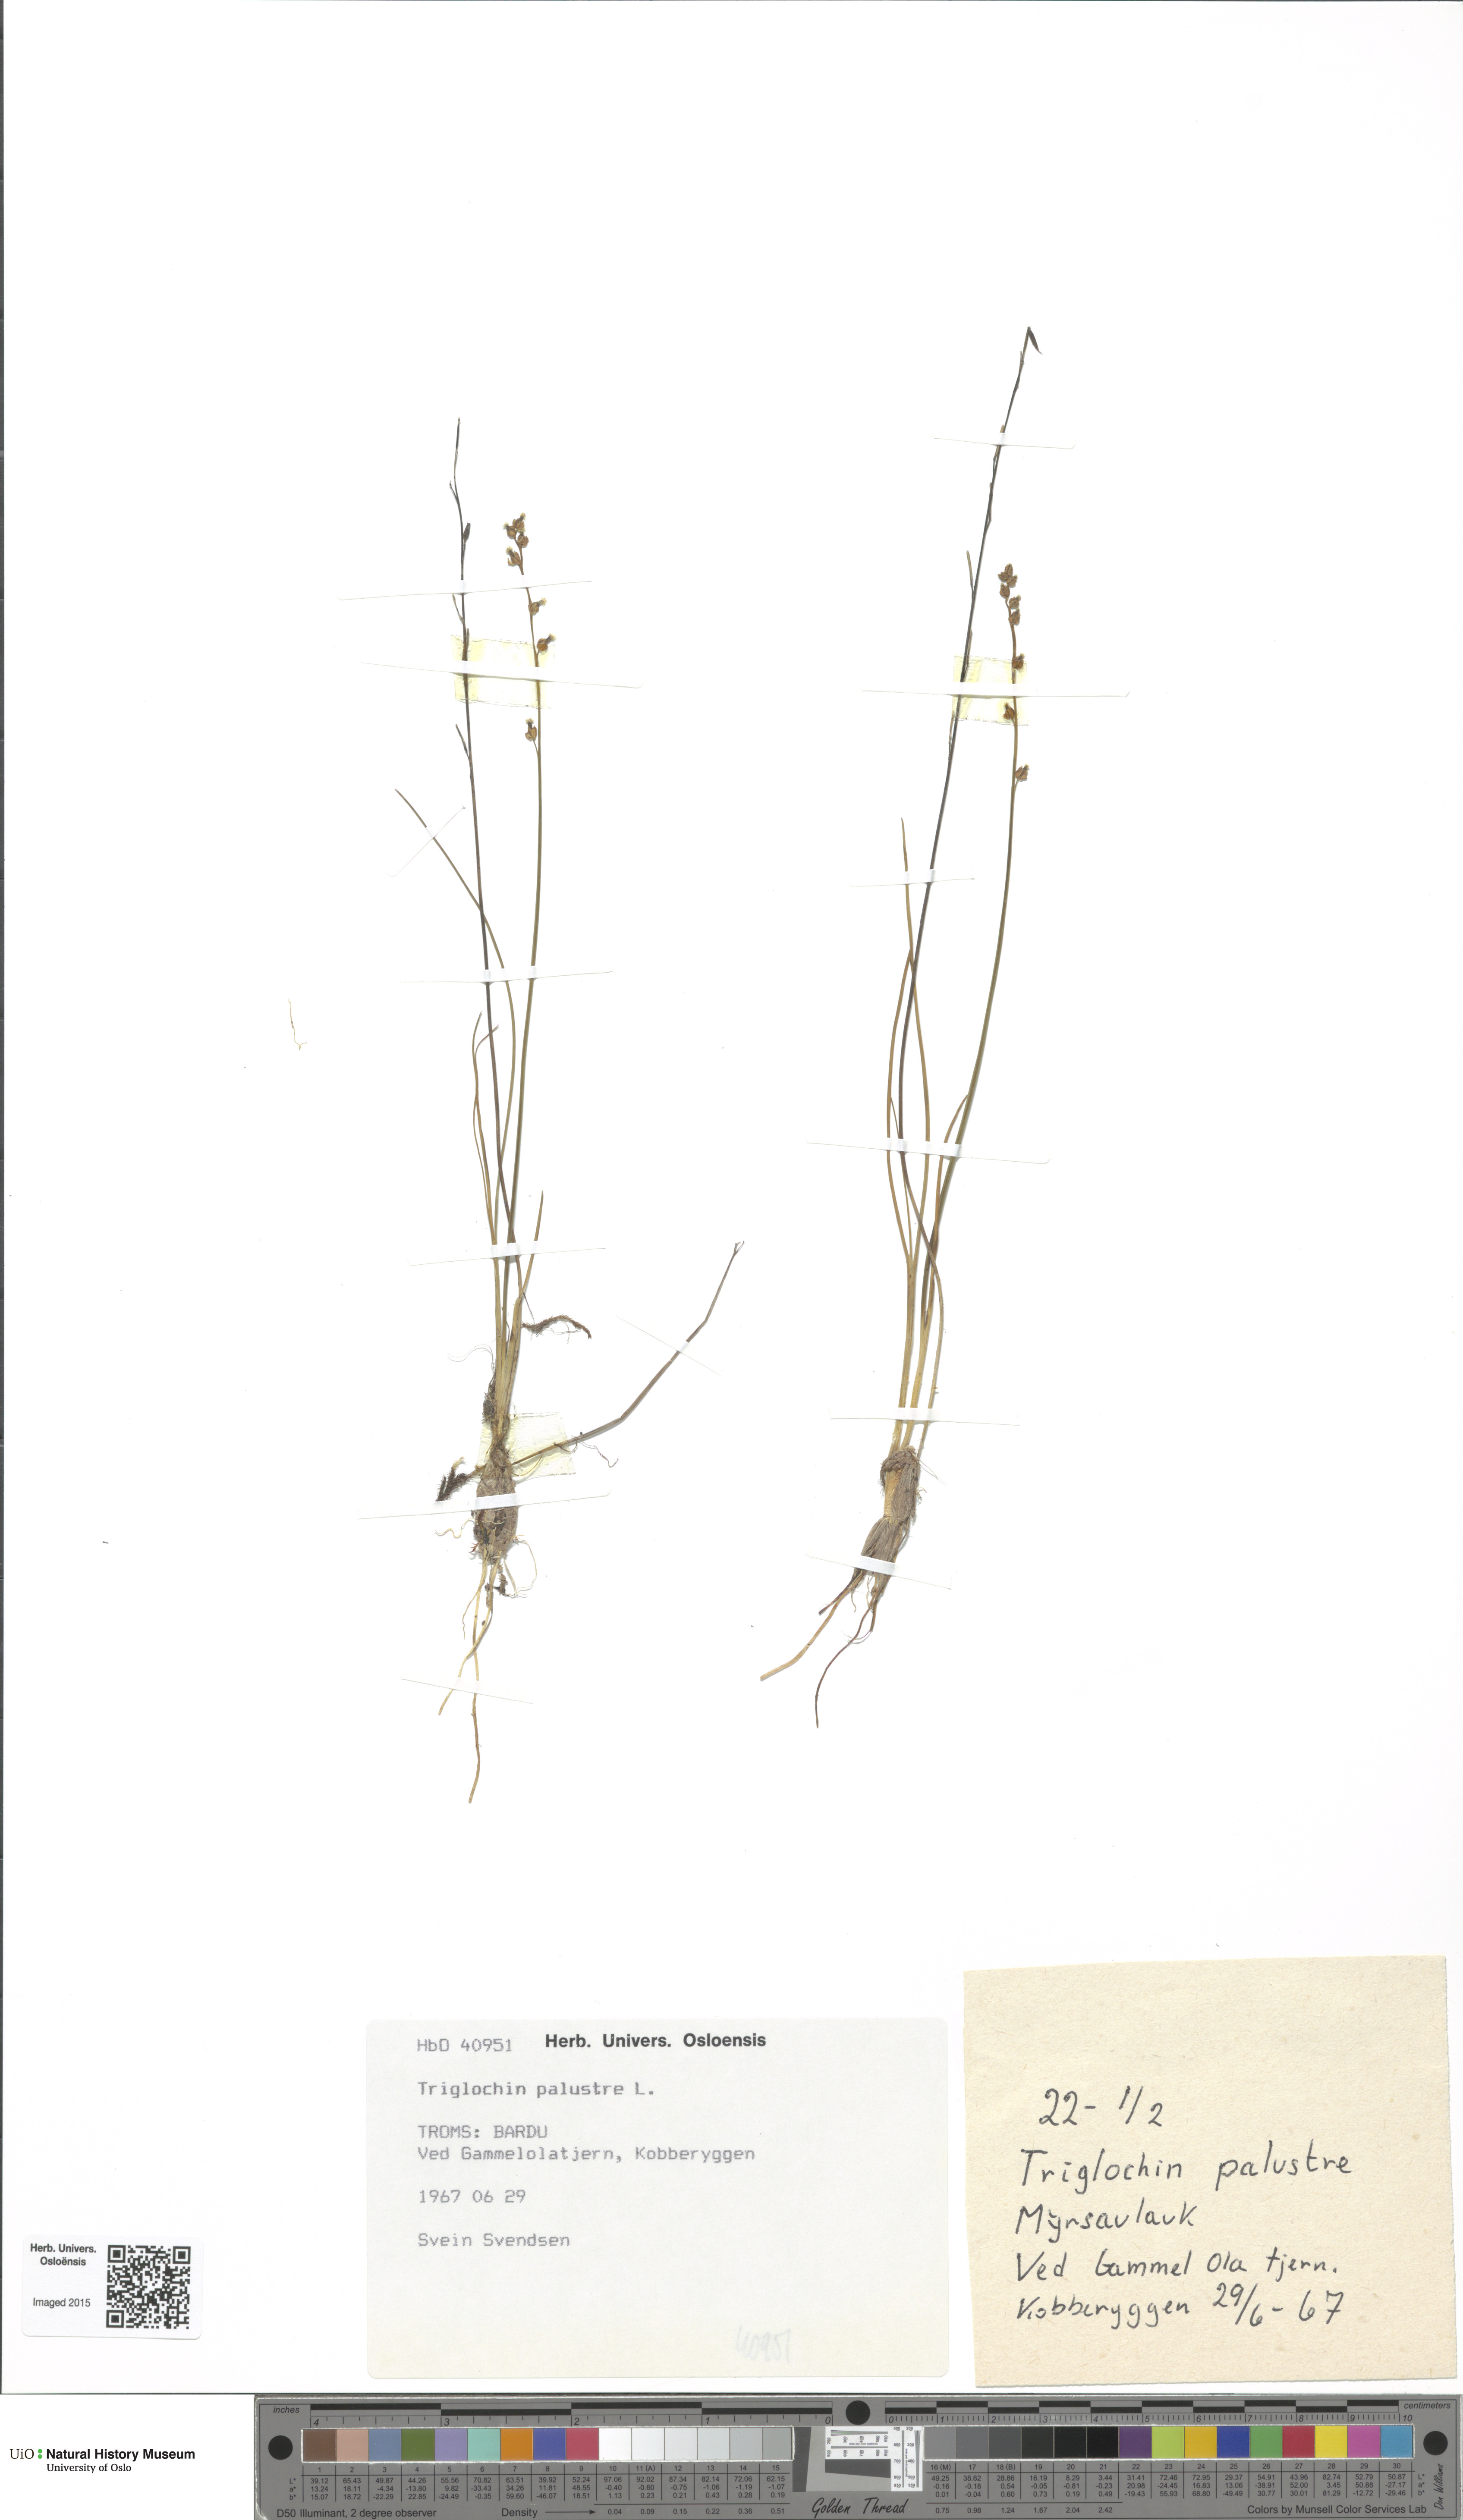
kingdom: Plantae
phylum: Tracheophyta
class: Liliopsida
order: Alismatales
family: Juncaginaceae
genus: Triglochin
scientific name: Triglochin palustris
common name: Marsh arrowgrass
